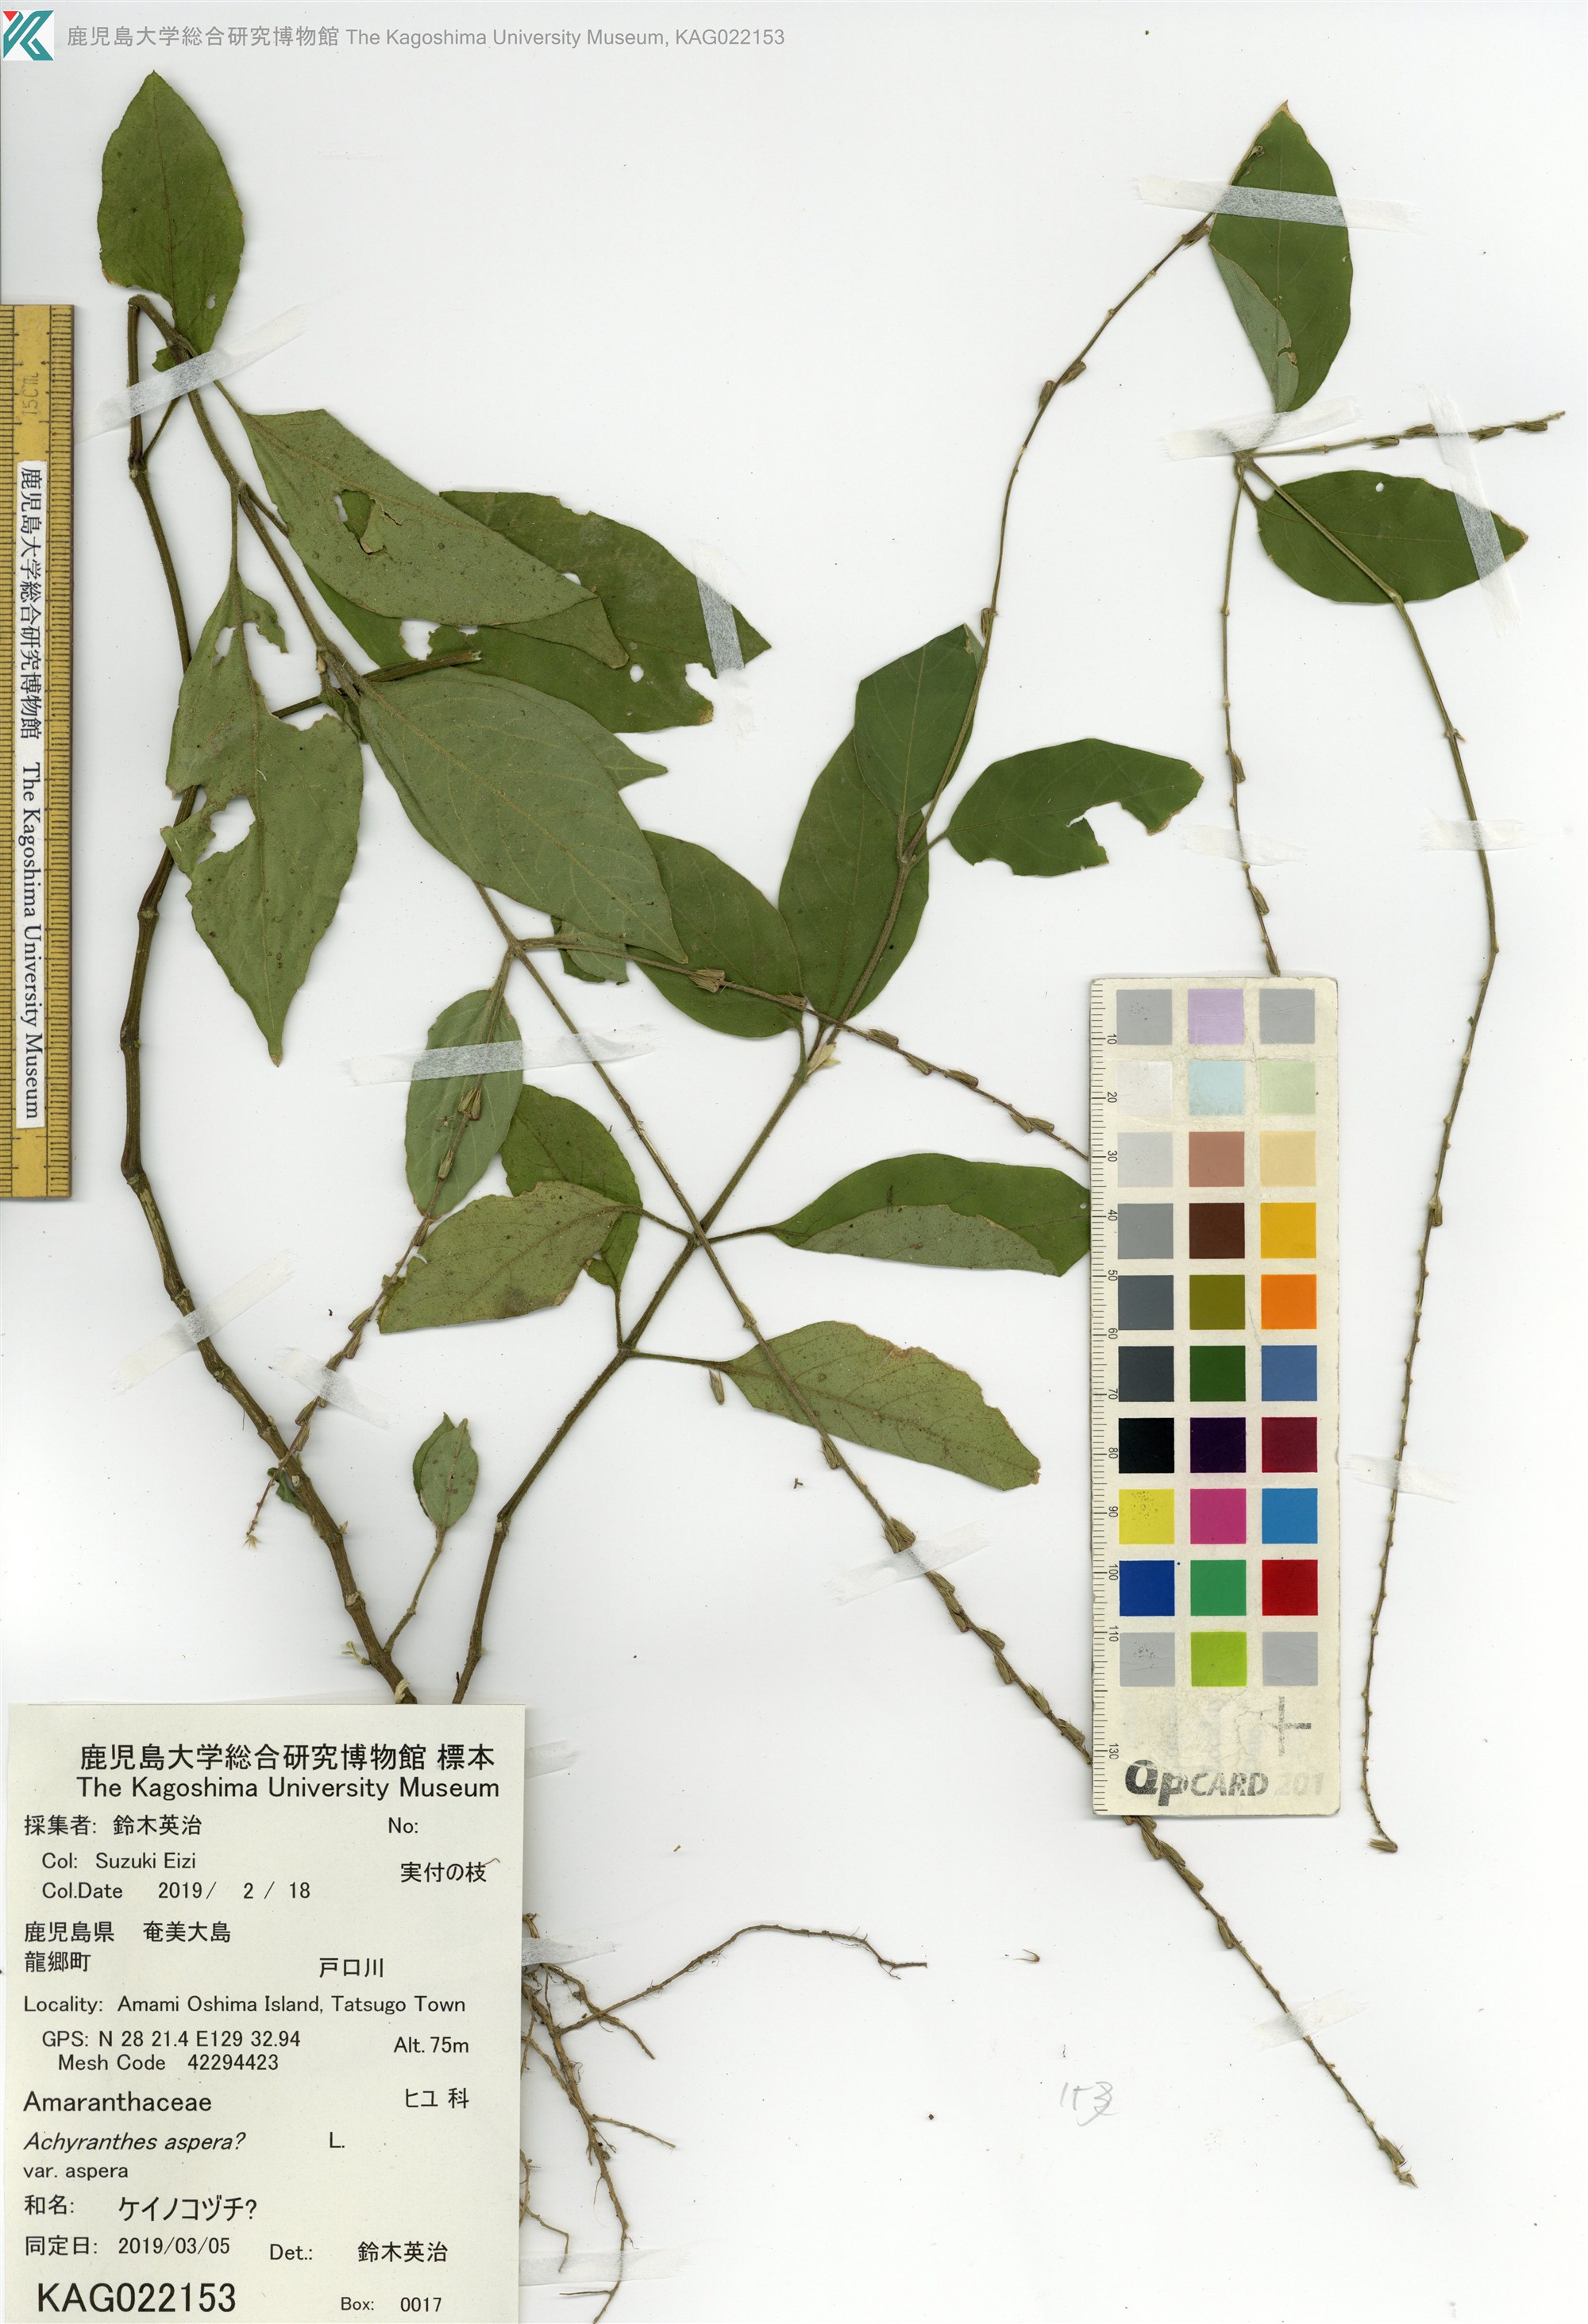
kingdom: Plantae
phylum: Tracheophyta
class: Magnoliopsida
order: Caryophyllales
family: Amaranthaceae
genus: Achyranthes
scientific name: Achyranthes aspera
